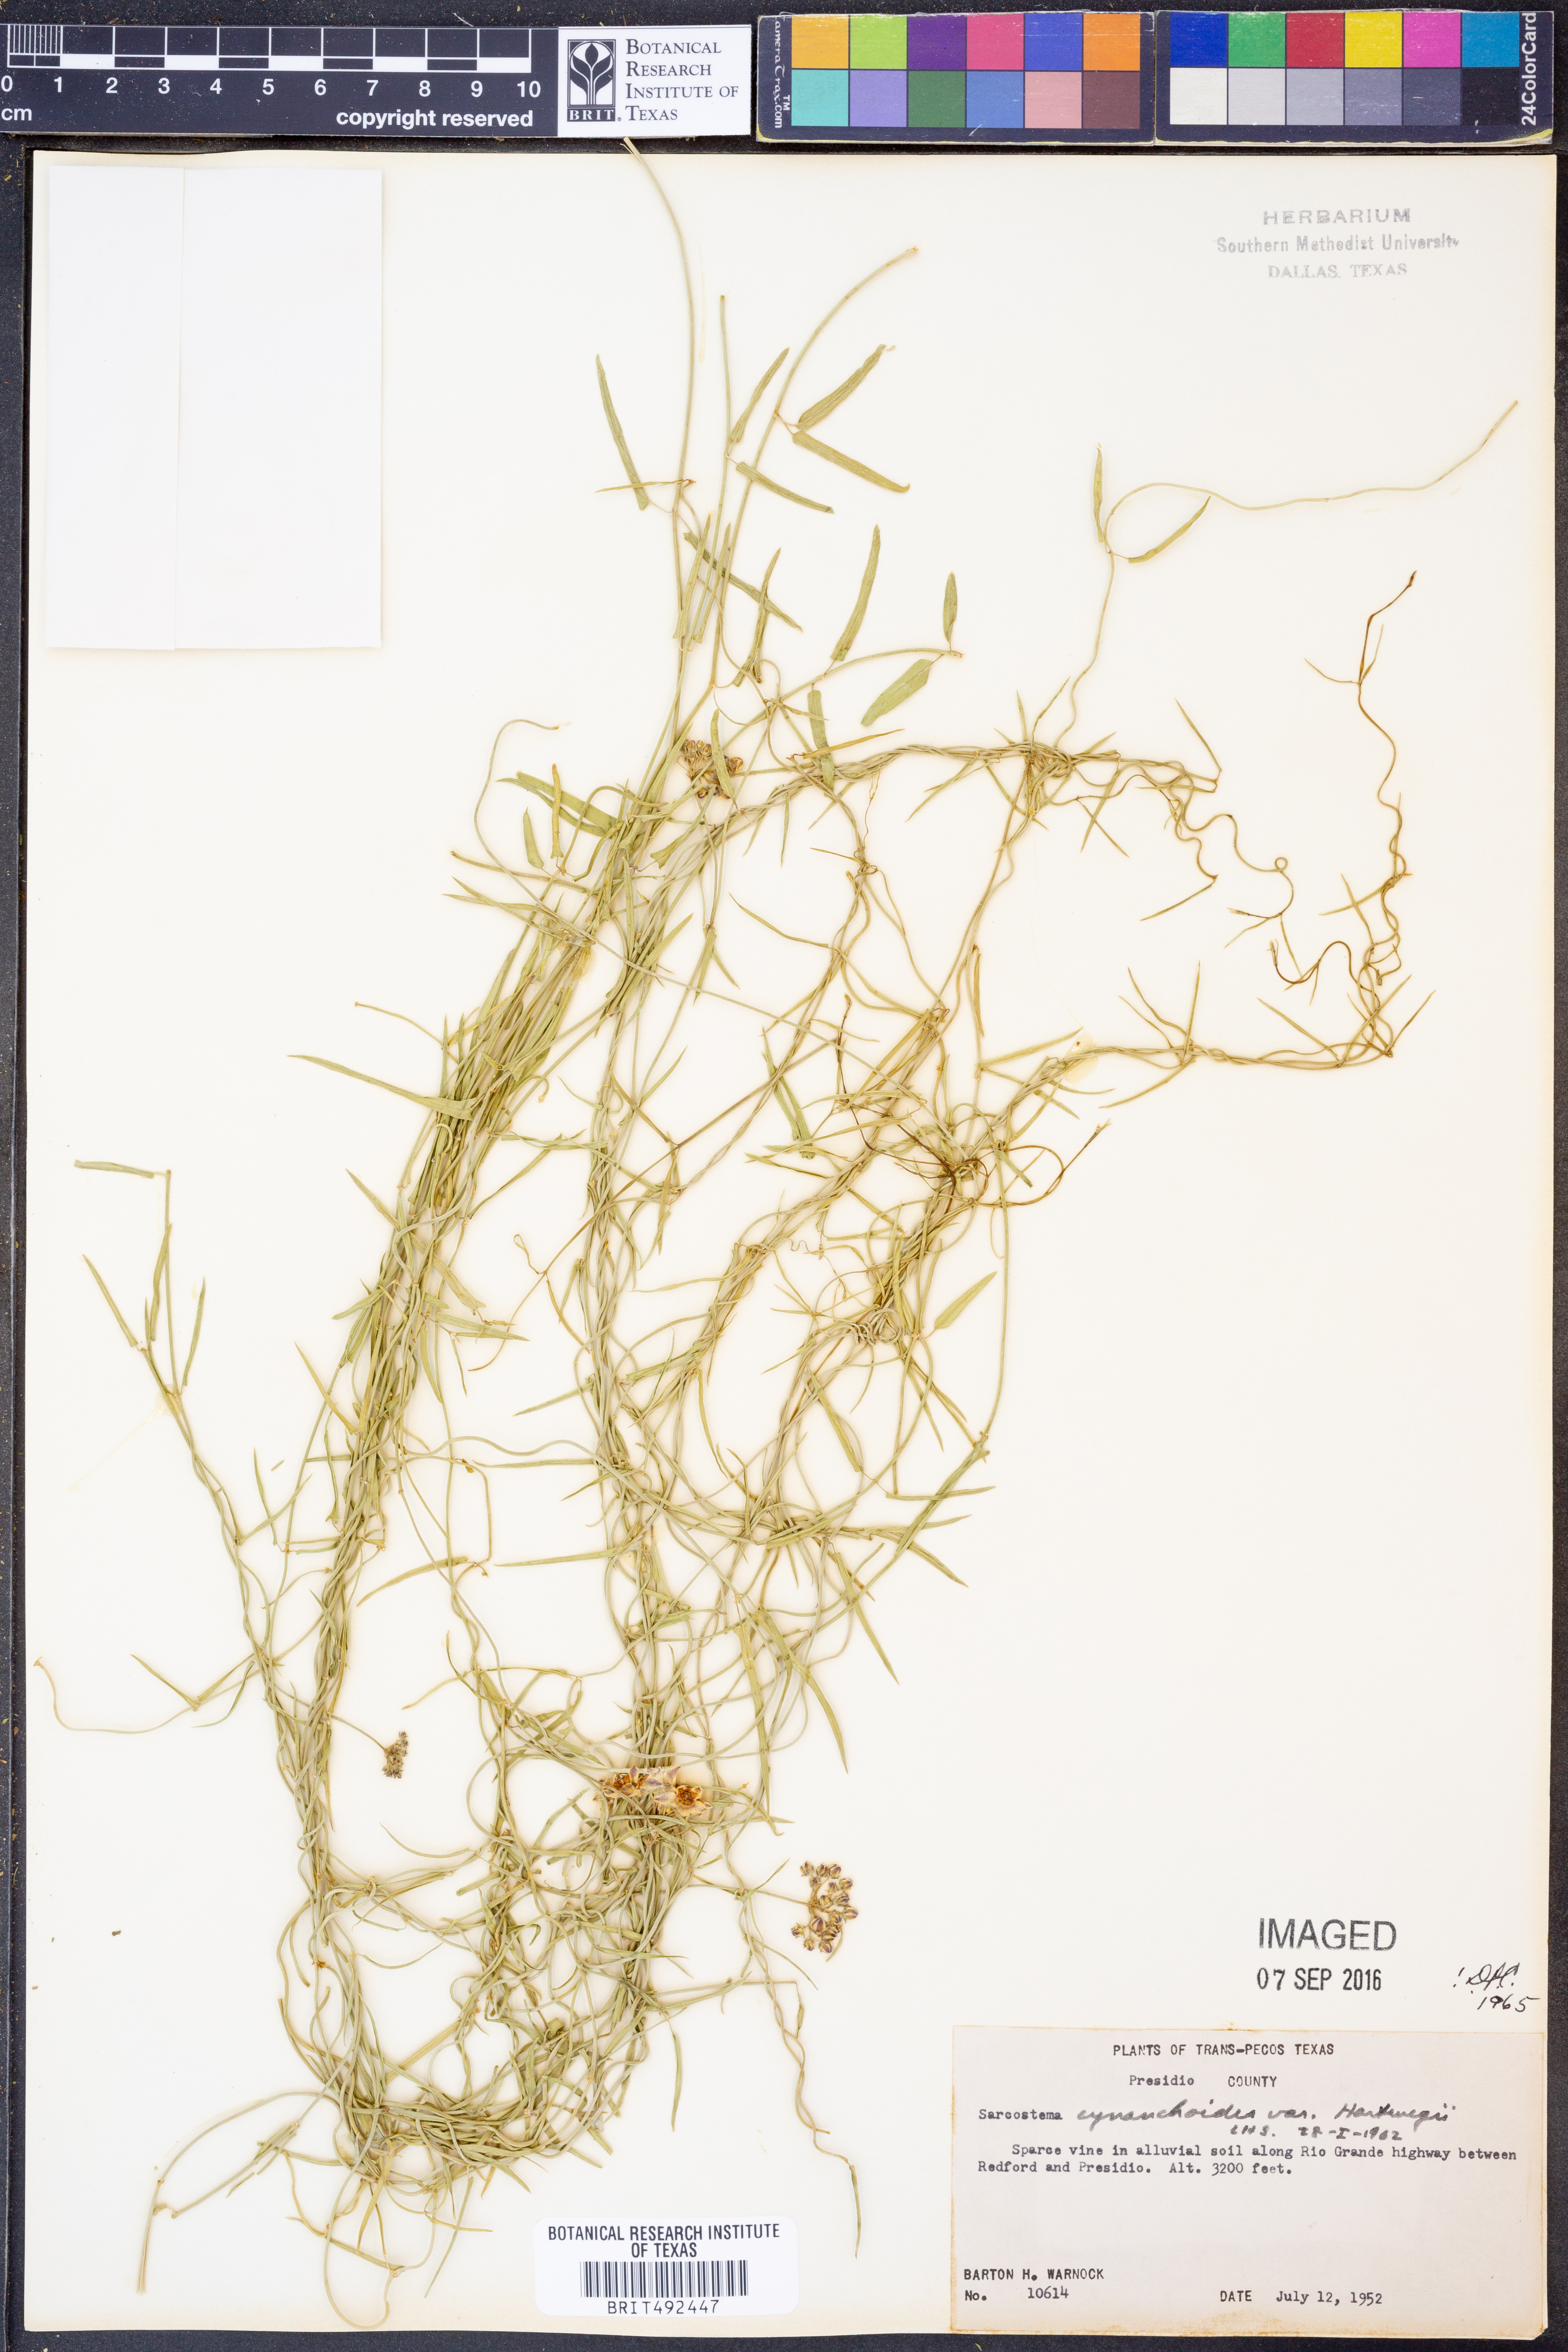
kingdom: Plantae
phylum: Tracheophyta
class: Magnoliopsida
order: Gentianales
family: Apocynaceae
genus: Funastrum
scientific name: Funastrum heterophyllum
